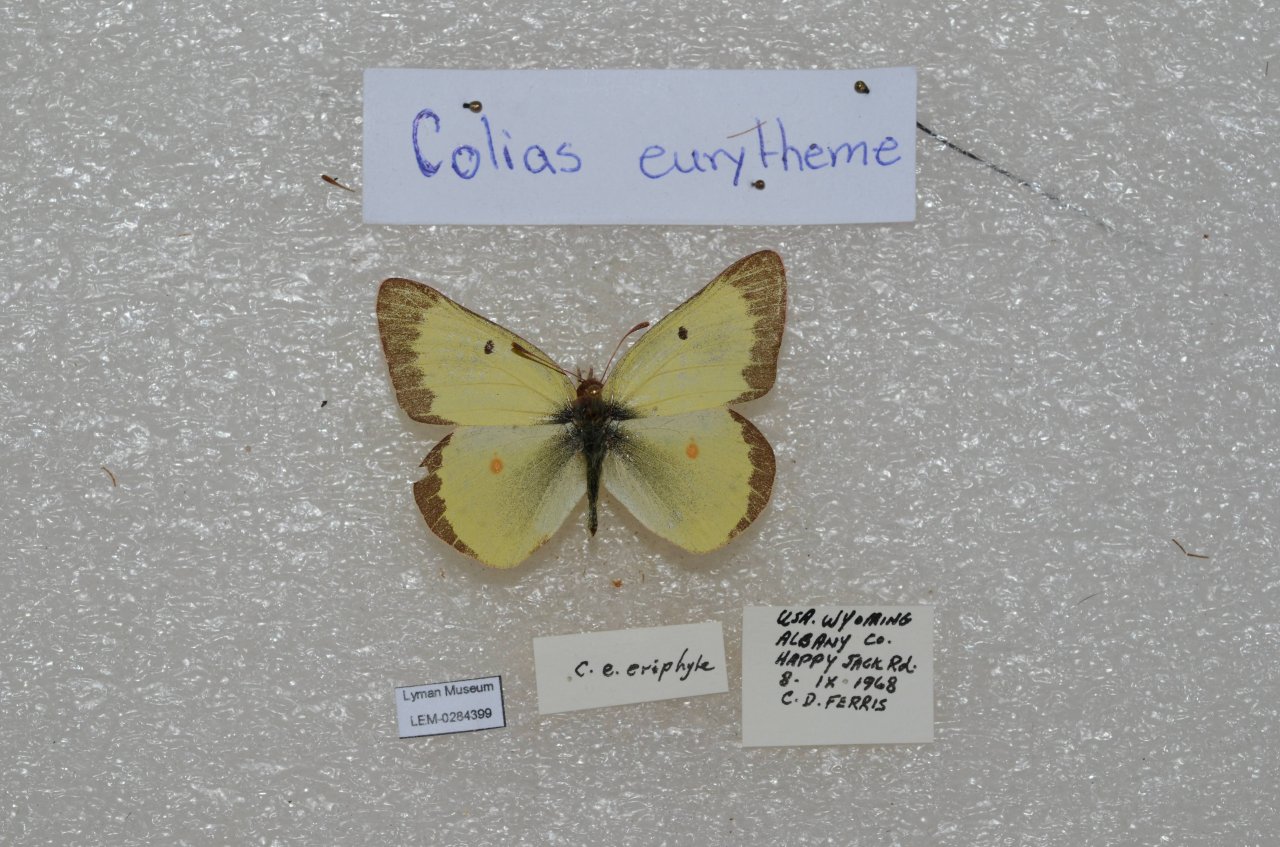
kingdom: Animalia
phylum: Arthropoda
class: Insecta
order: Lepidoptera
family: Pieridae
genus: Colias
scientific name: Colias eurytheme
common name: Orange Sulphur
